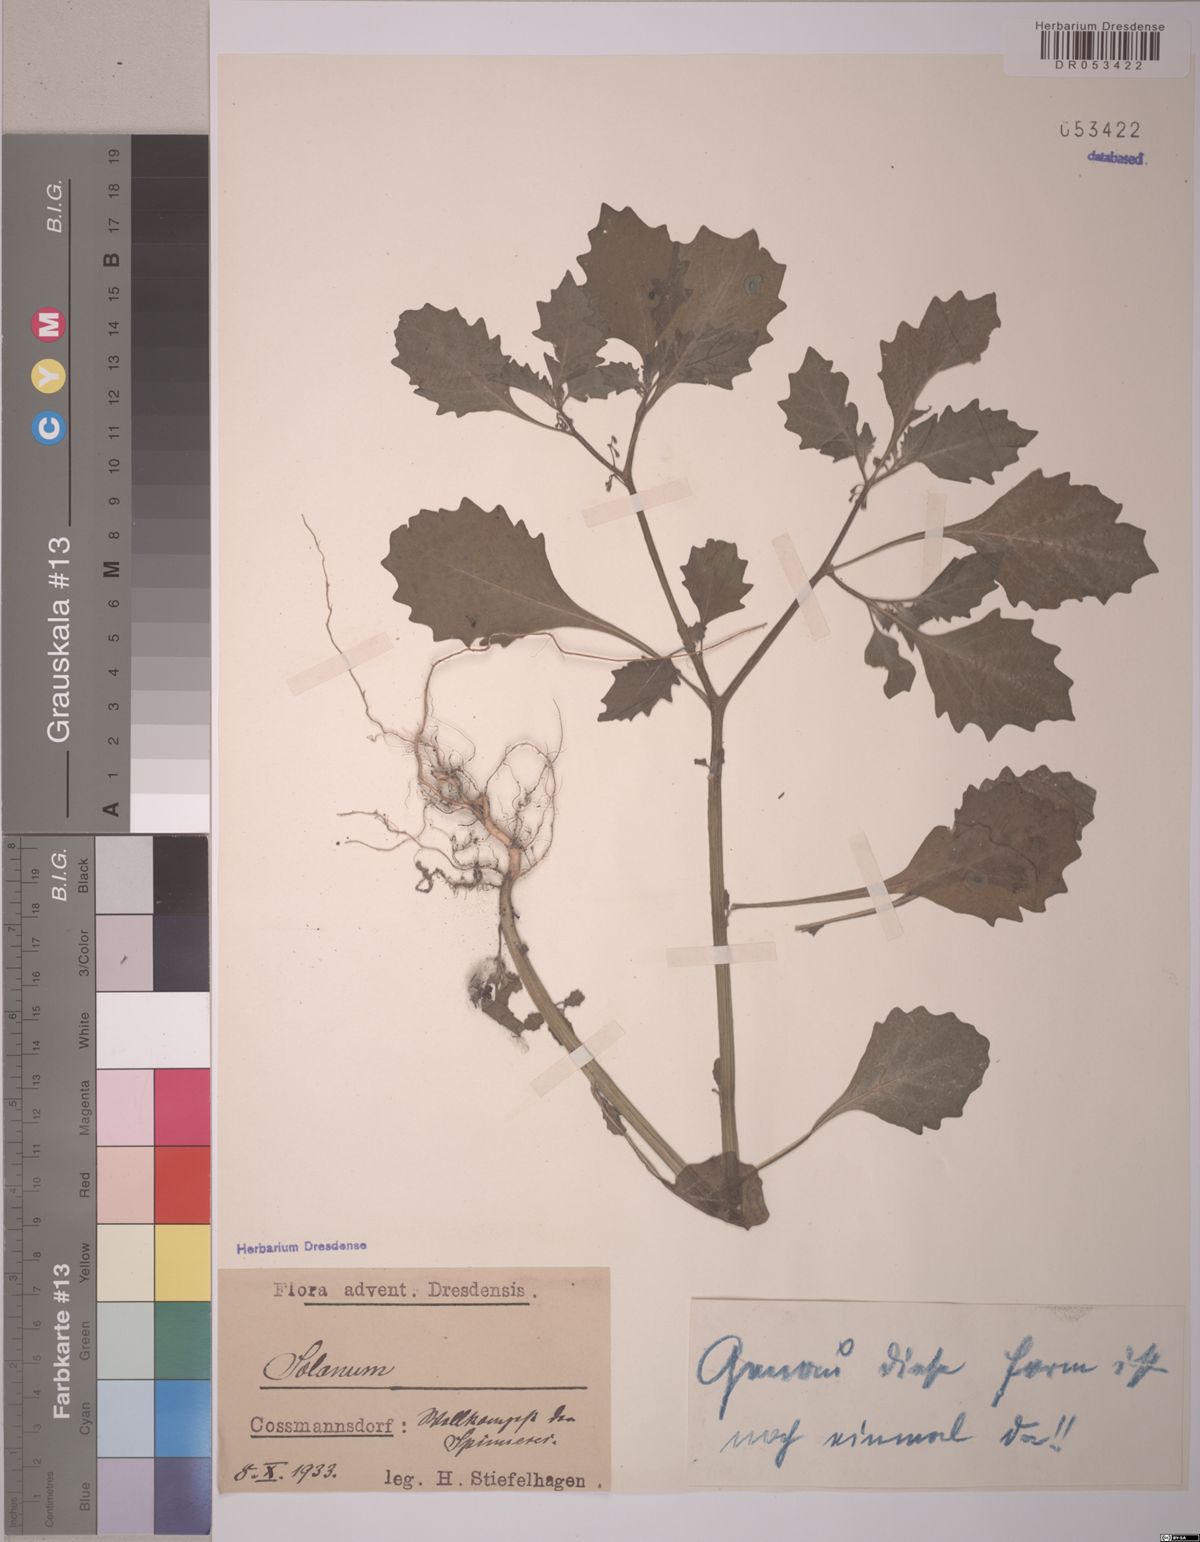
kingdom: Plantae
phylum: Tracheophyta
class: Magnoliopsida
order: Solanales
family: Solanaceae
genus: Solanum
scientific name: Solanum
